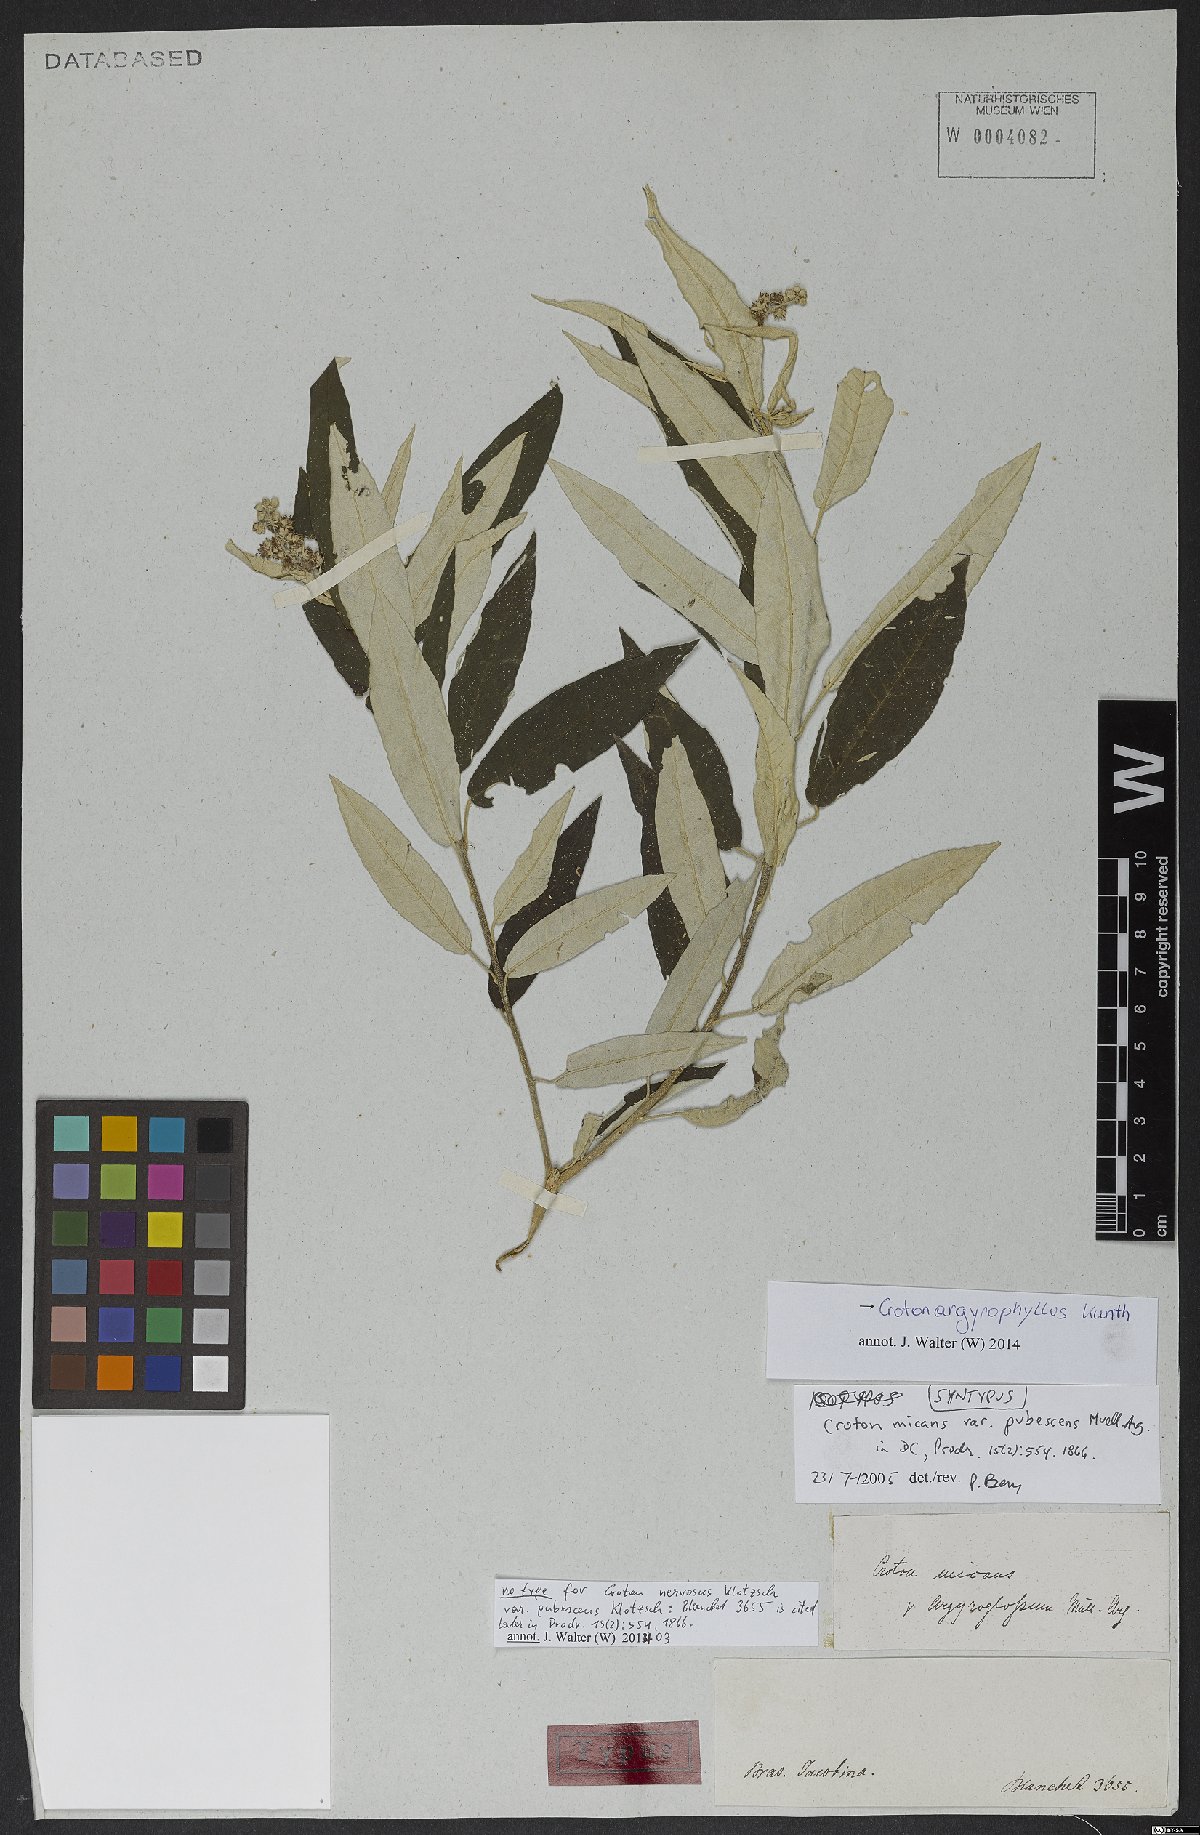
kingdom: Plantae
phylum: Tracheophyta
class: Magnoliopsida
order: Malpighiales
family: Euphorbiaceae
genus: Croton
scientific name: Croton argyrophyllus
